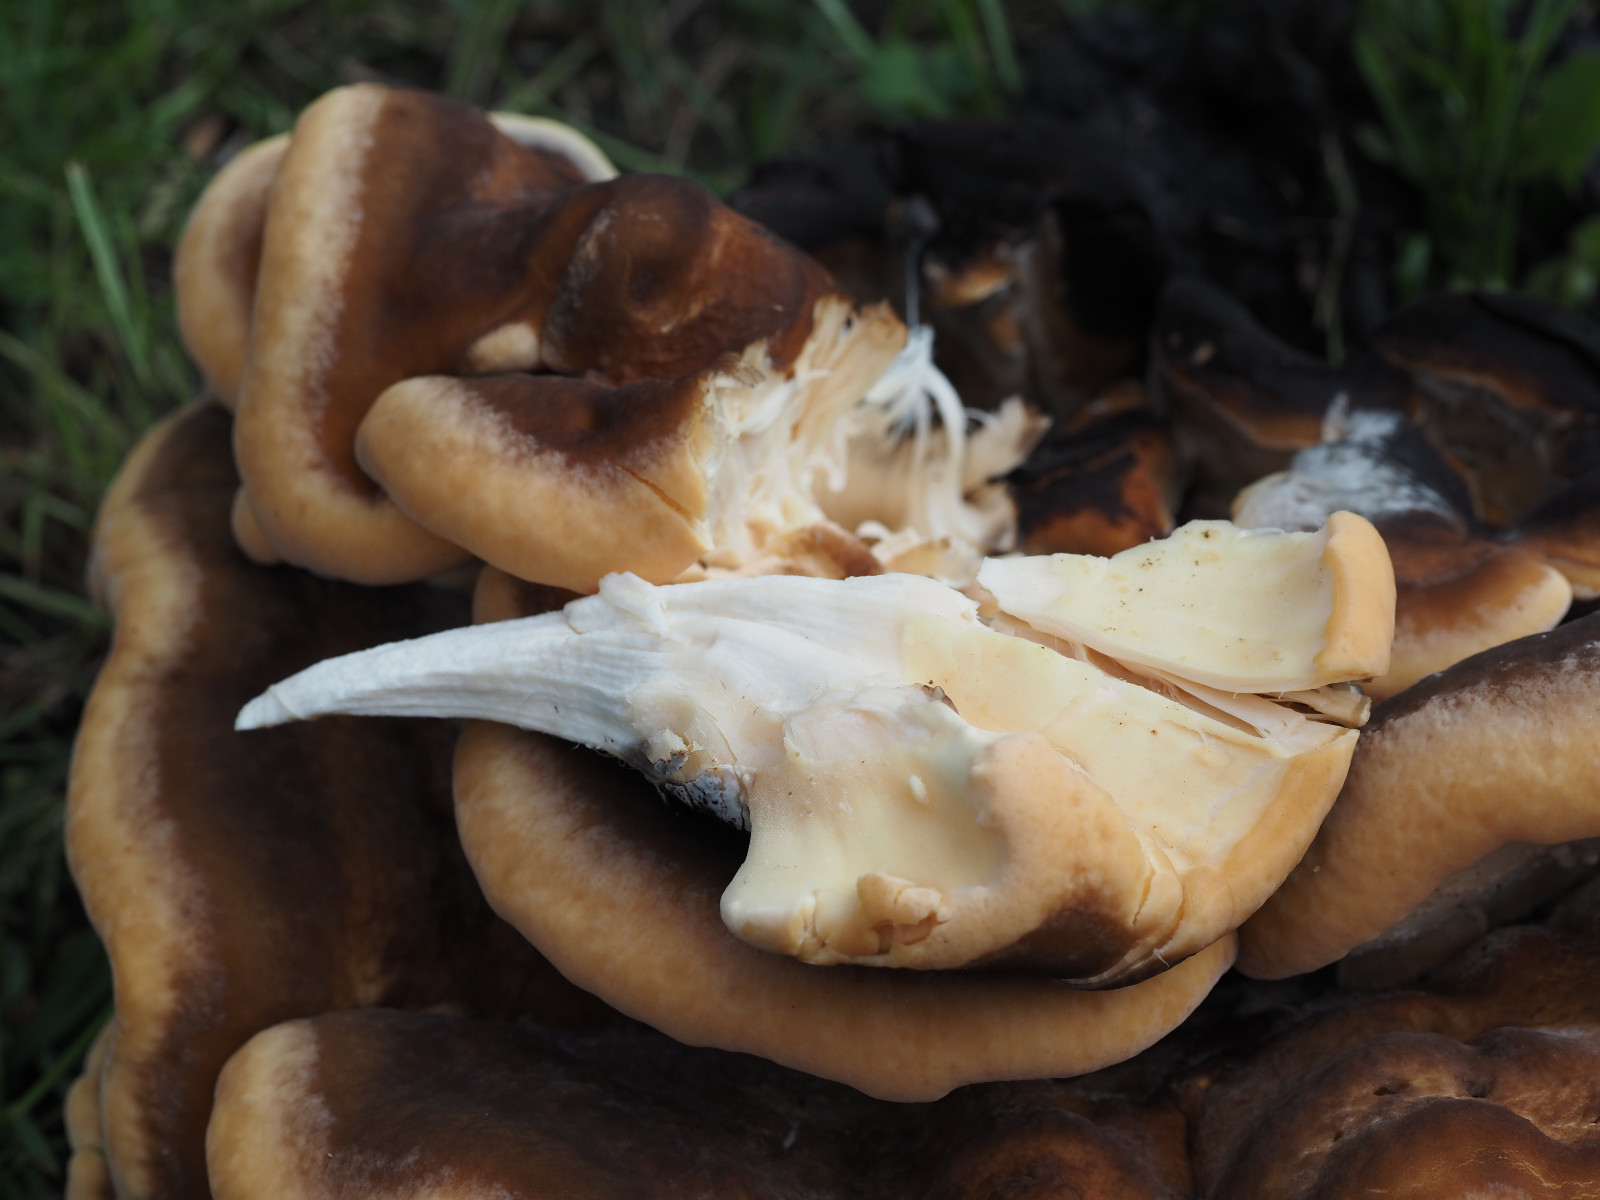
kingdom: Fungi
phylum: Basidiomycota
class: Agaricomycetes
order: Polyporales
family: Meripilaceae
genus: Meripilus
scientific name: Meripilus giganteus
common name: kæmpeporesvamp
